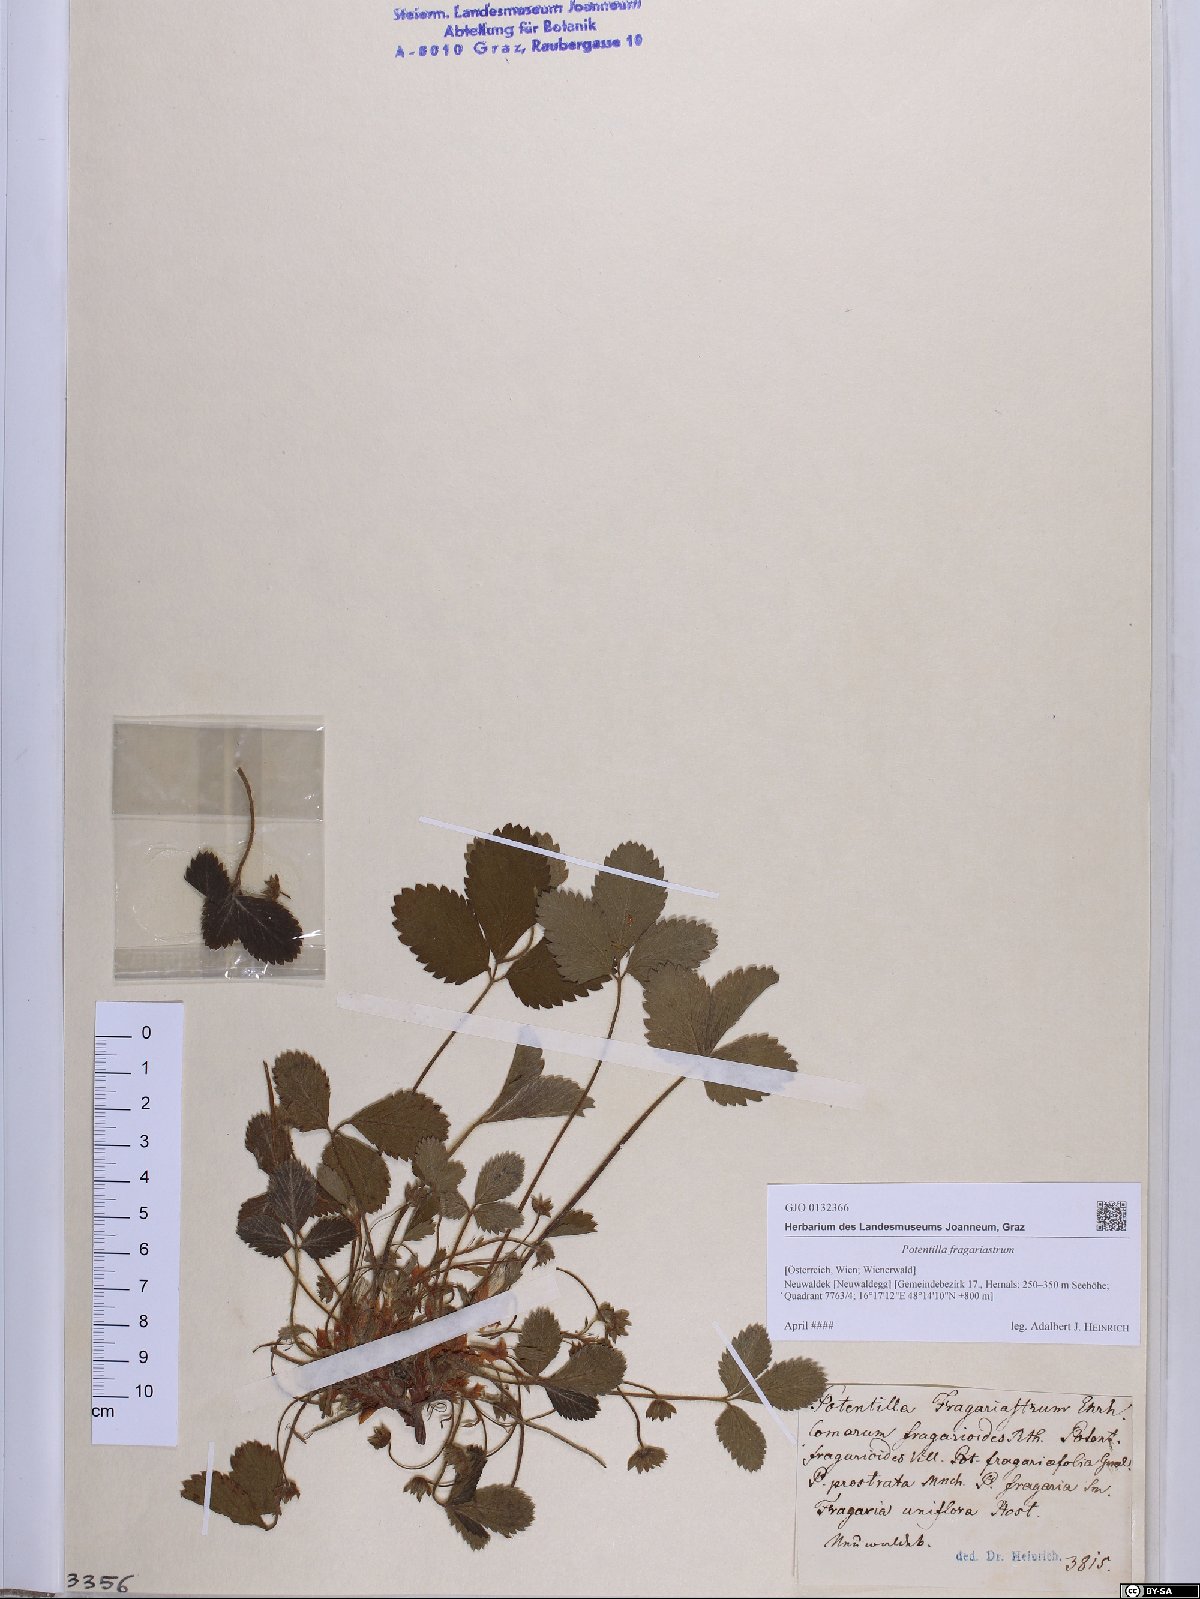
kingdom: Plantae
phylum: Tracheophyta
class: Magnoliopsida
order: Rosales
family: Rosaceae
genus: Potentilla
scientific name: Potentilla sterilis
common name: Barren strawberry
